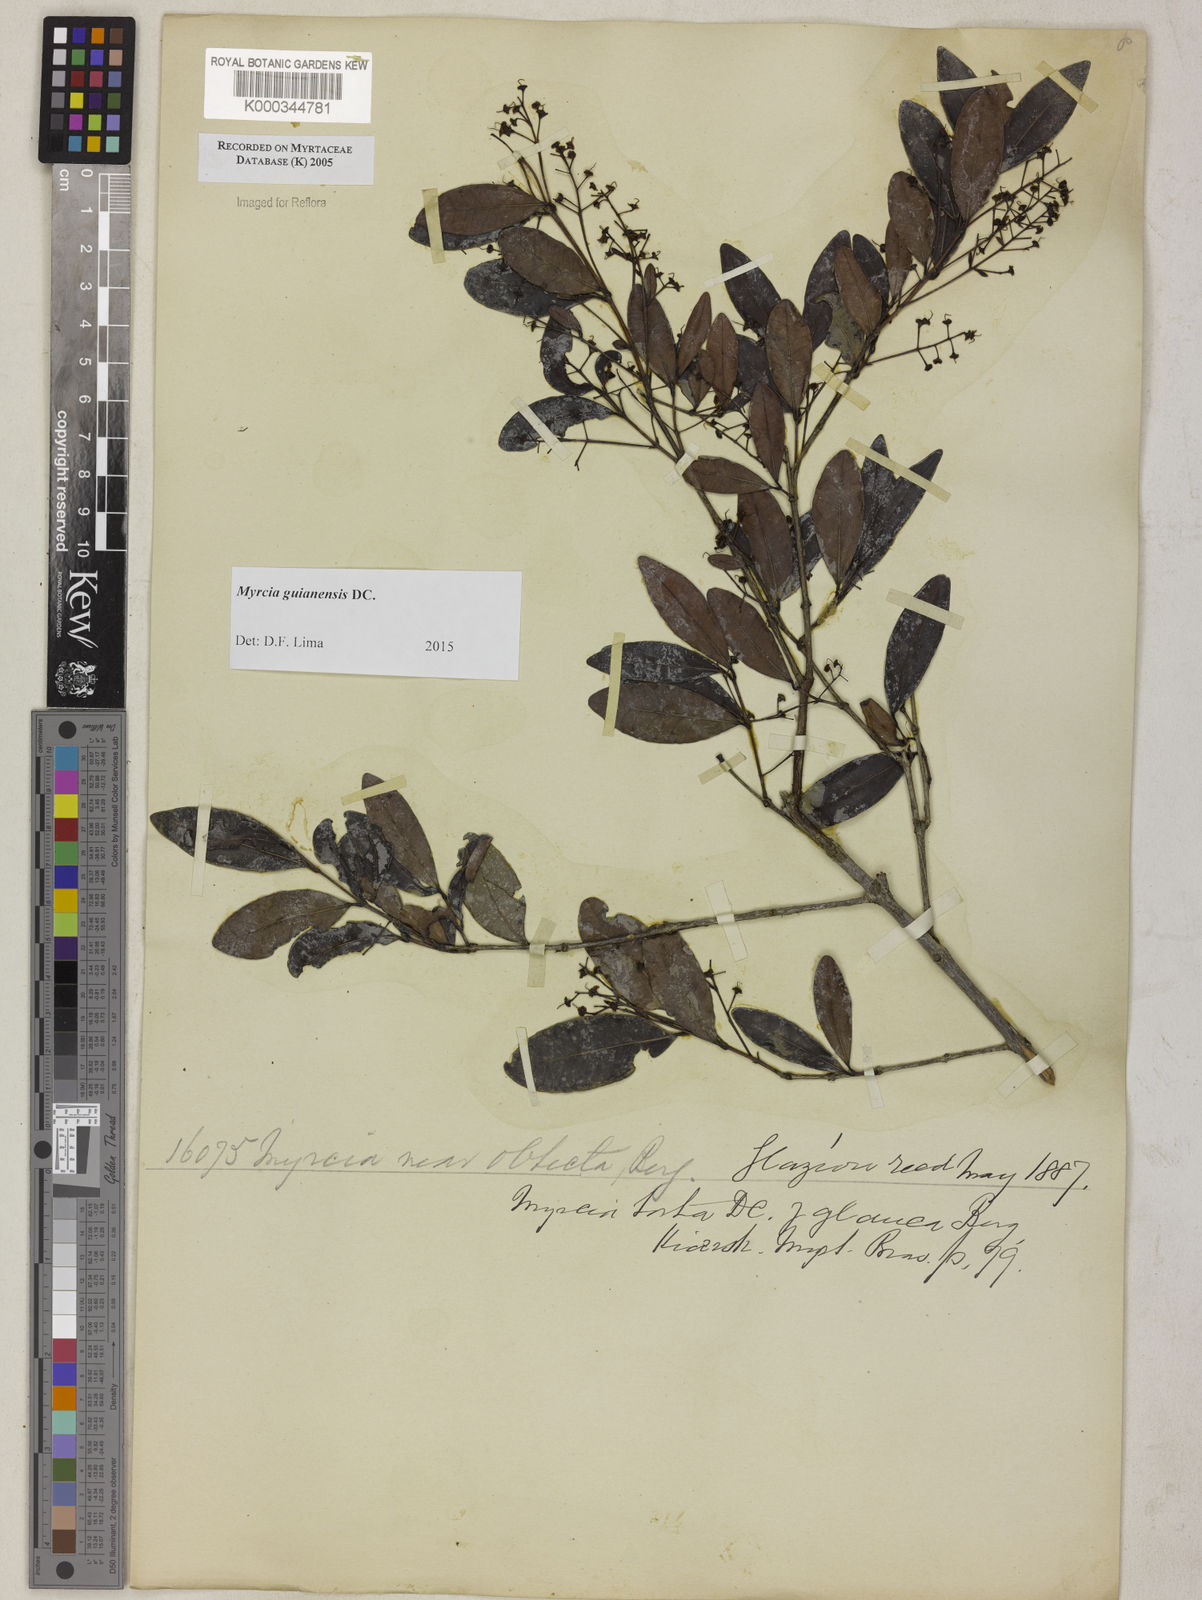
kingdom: Plantae
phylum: Tracheophyta
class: Magnoliopsida
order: Myrtales
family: Myrtaceae
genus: Myrcia
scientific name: Myrcia guianensis
